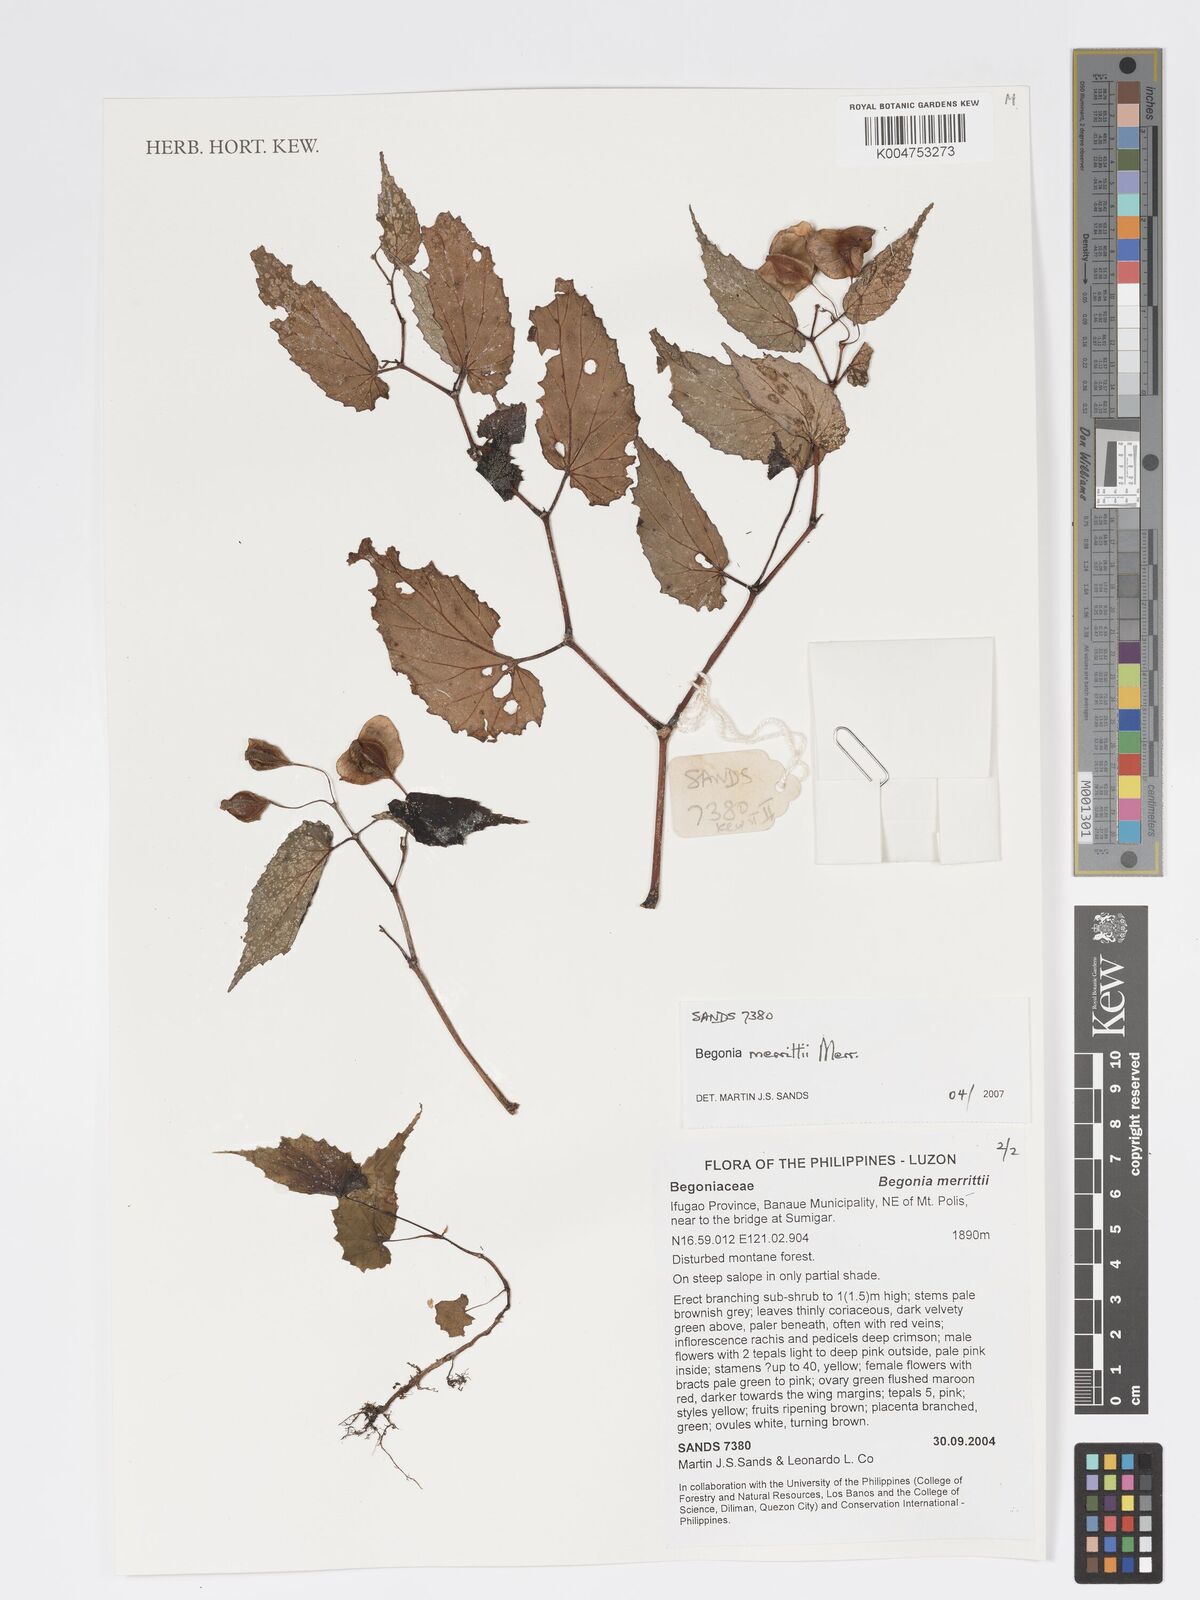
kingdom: Plantae
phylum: Tracheophyta
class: Magnoliopsida
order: Cucurbitales
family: Begoniaceae
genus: Begonia
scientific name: Begonia merrittii
